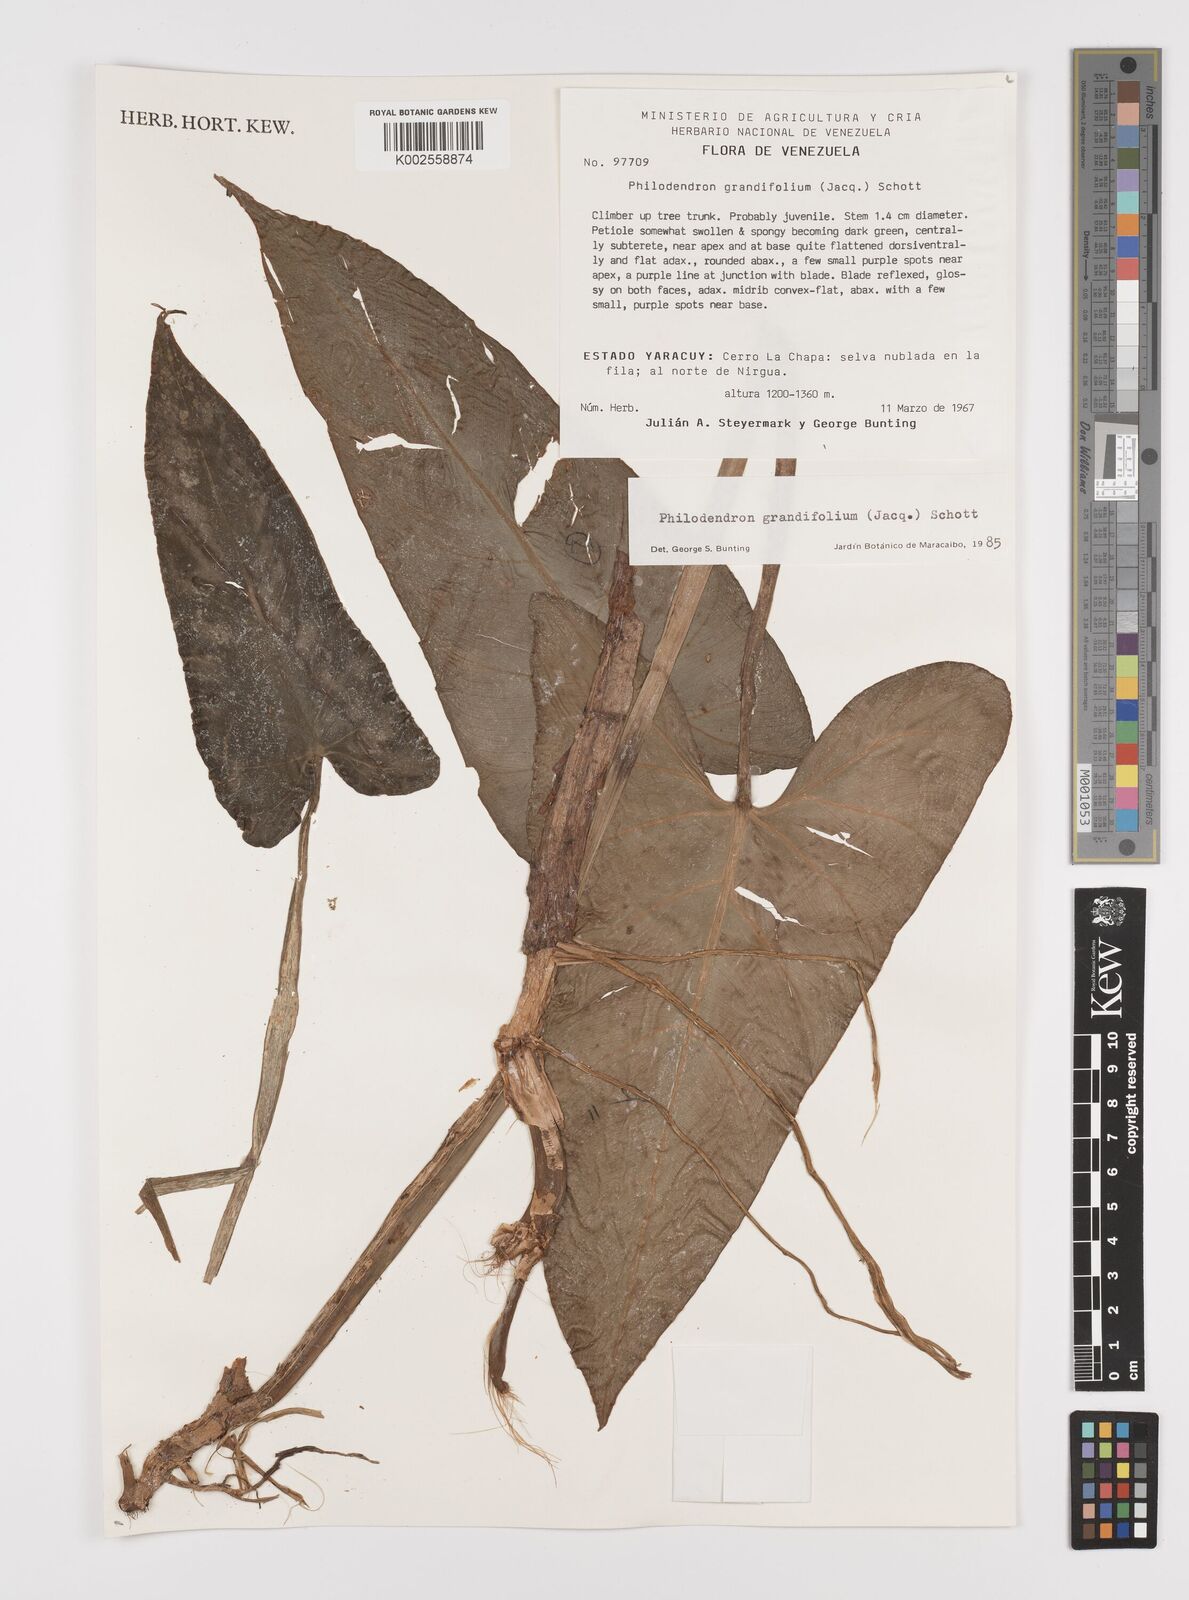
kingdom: Plantae
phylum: Tracheophyta
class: Liliopsida
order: Alismatales
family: Araceae
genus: Philodendron
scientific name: Philodendron grandifolium
